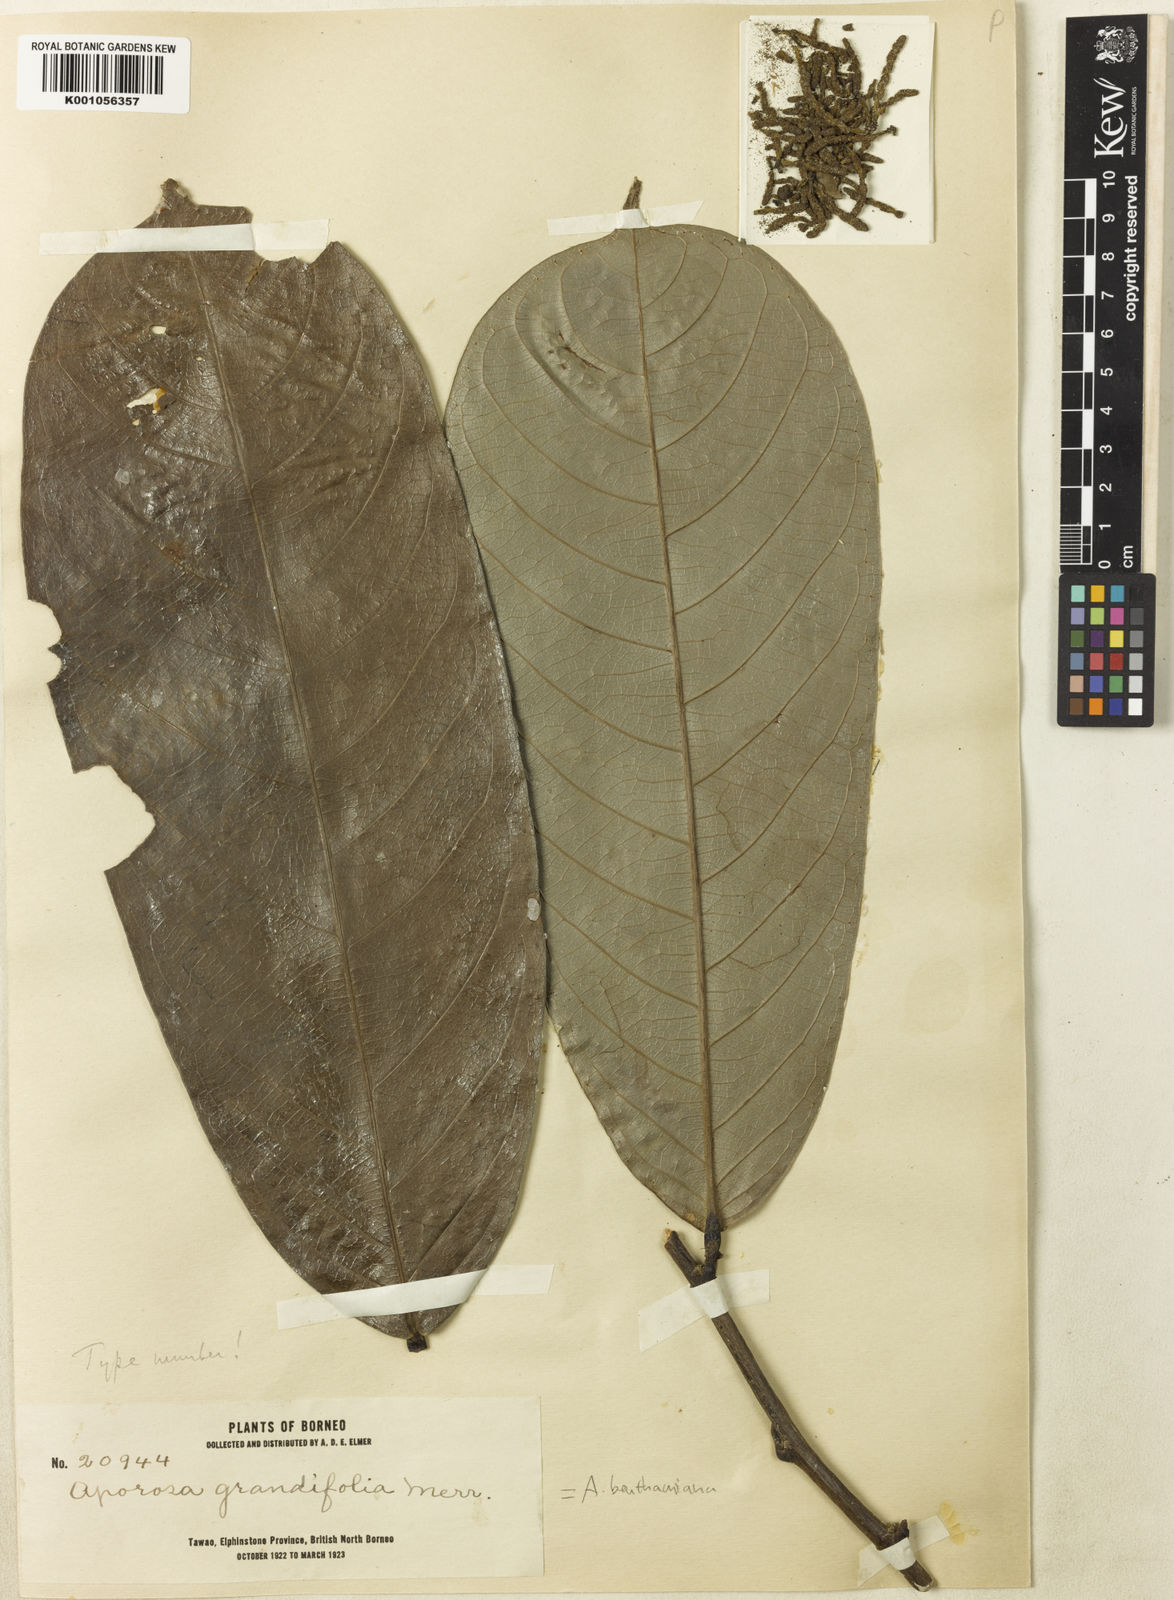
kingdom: Plantae
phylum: Tracheophyta
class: Magnoliopsida
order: Malpighiales
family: Phyllanthaceae
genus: Aporosa
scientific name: Aporosa benthamiana
